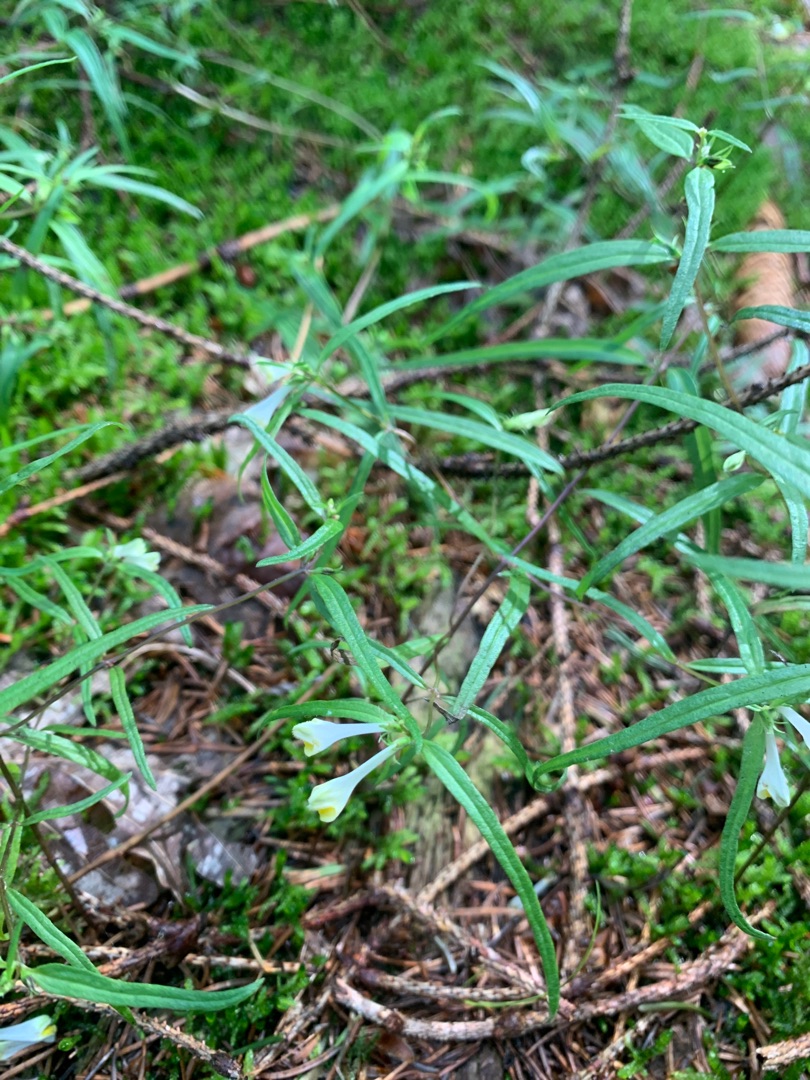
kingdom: Plantae
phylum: Tracheophyta
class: Magnoliopsida
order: Lamiales
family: Orobanchaceae
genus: Melampyrum
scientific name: Melampyrum pratense
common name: Almindelig kohvede
